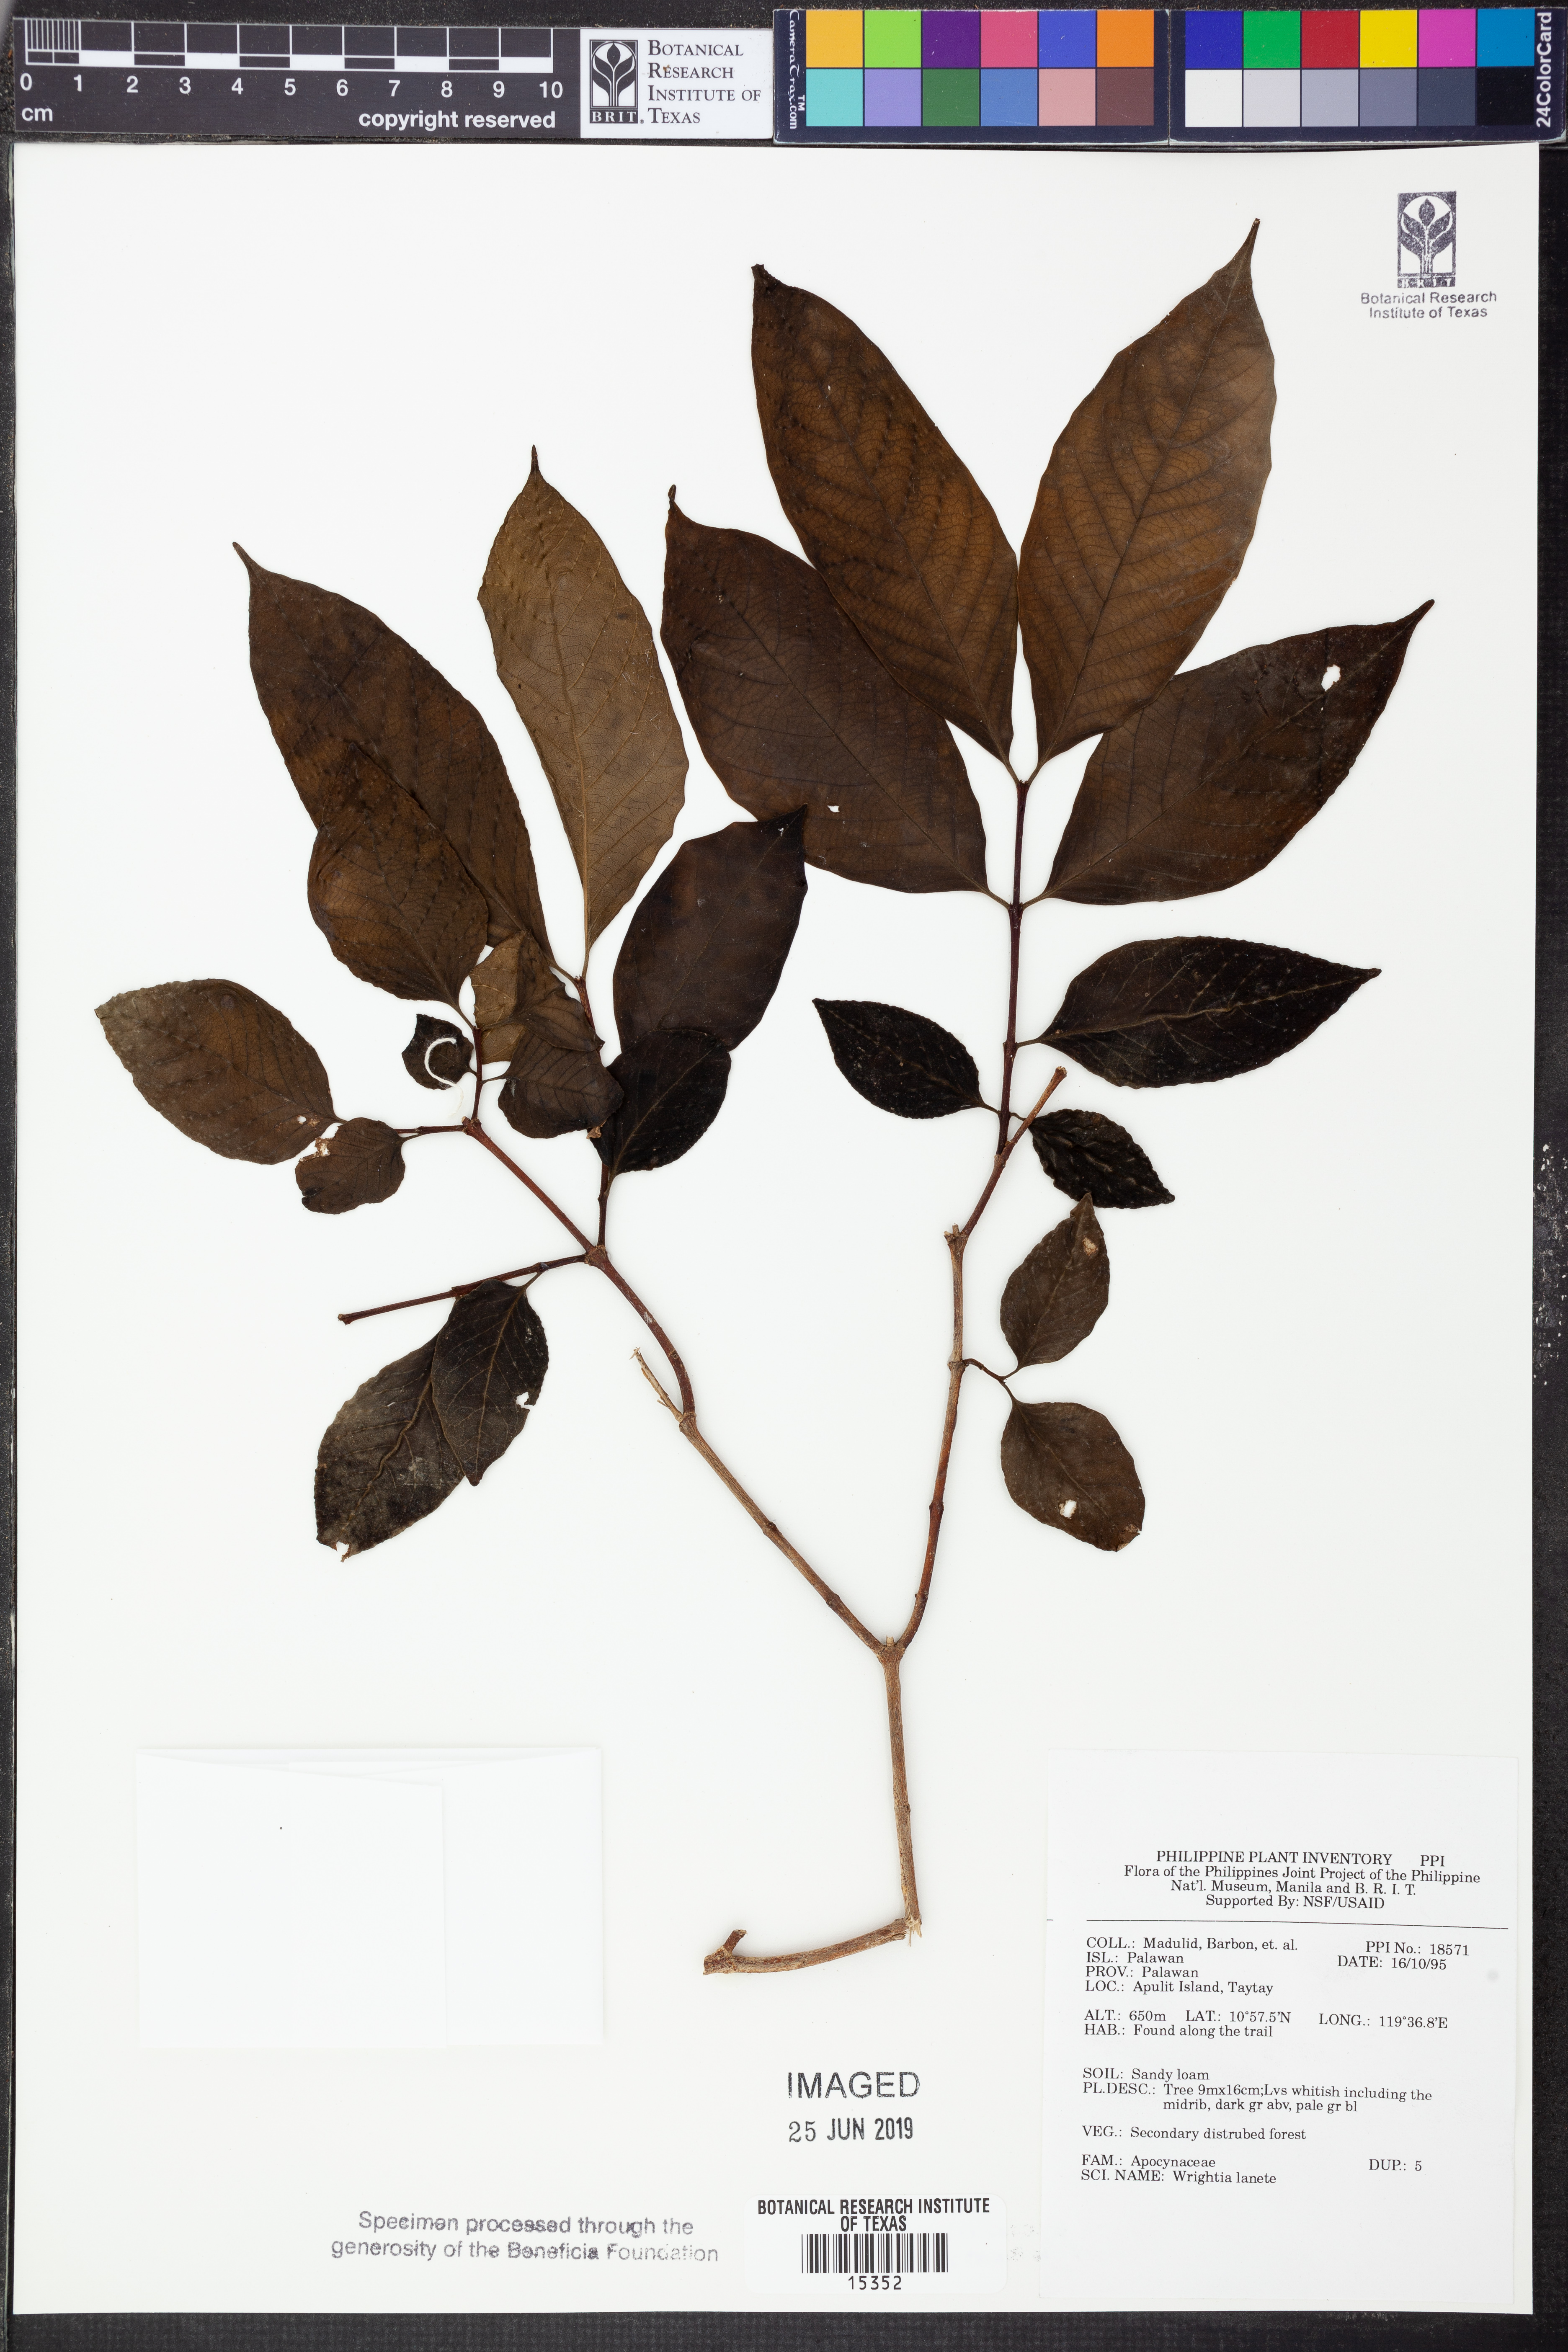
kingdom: Plantae
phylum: Tracheophyta
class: Magnoliopsida
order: Gentianales
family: Apocynaceae
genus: Wrightia
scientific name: Wrightia pubescens
